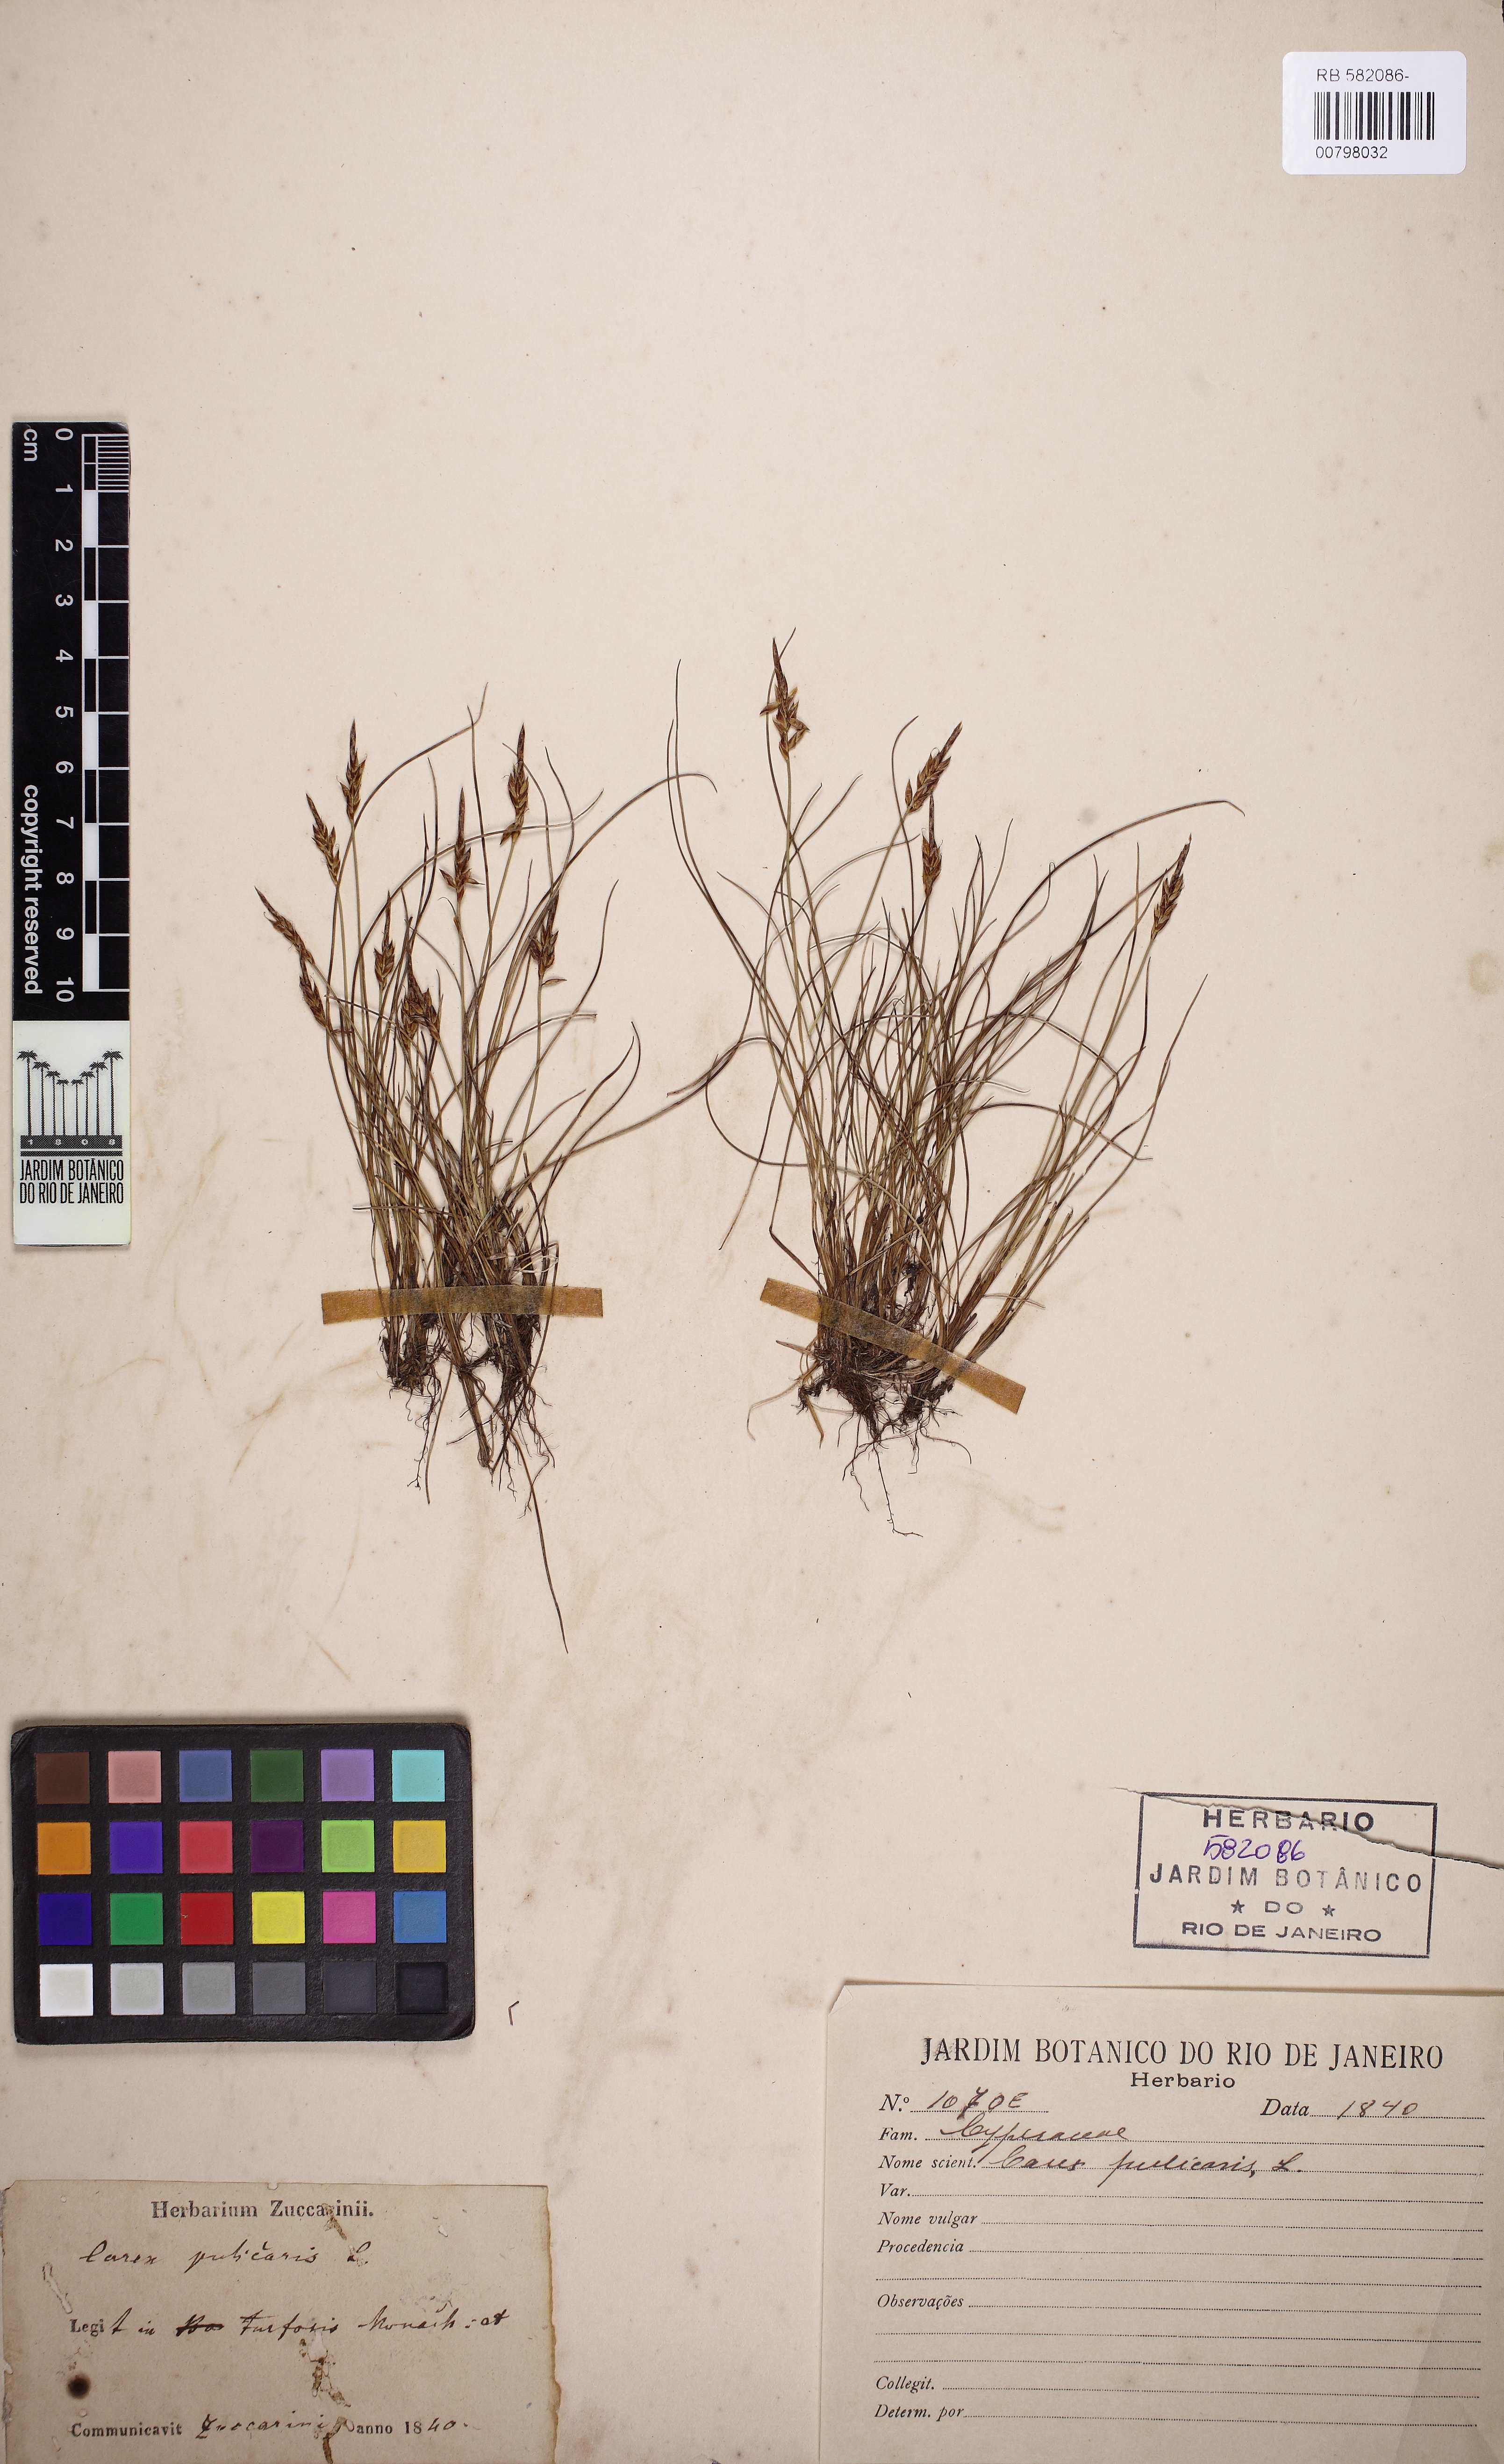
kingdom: Plantae
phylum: Tracheophyta
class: Liliopsida
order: Poales
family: Cyperaceae
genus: Carex
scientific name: Carex pulicaris
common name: Flea sedge
